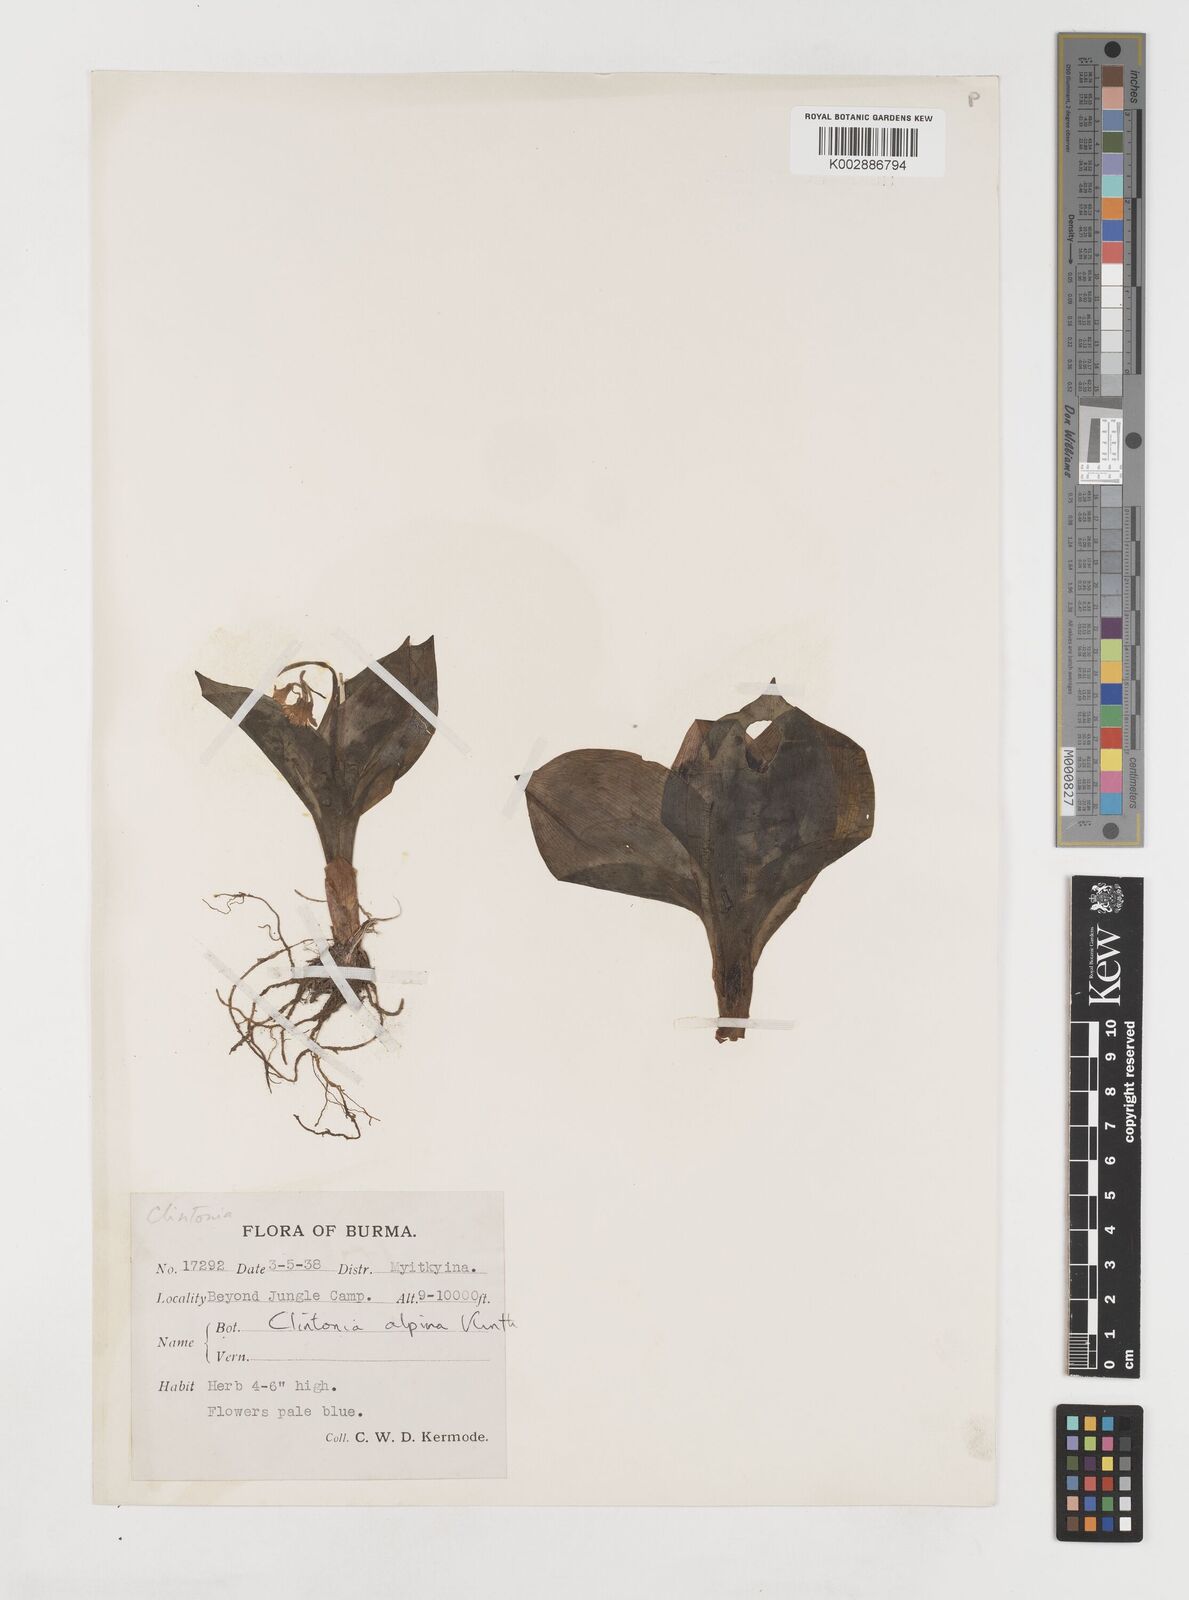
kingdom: Plantae
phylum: Tracheophyta
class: Liliopsida
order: Liliales
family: Liliaceae
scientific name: Liliaceae
